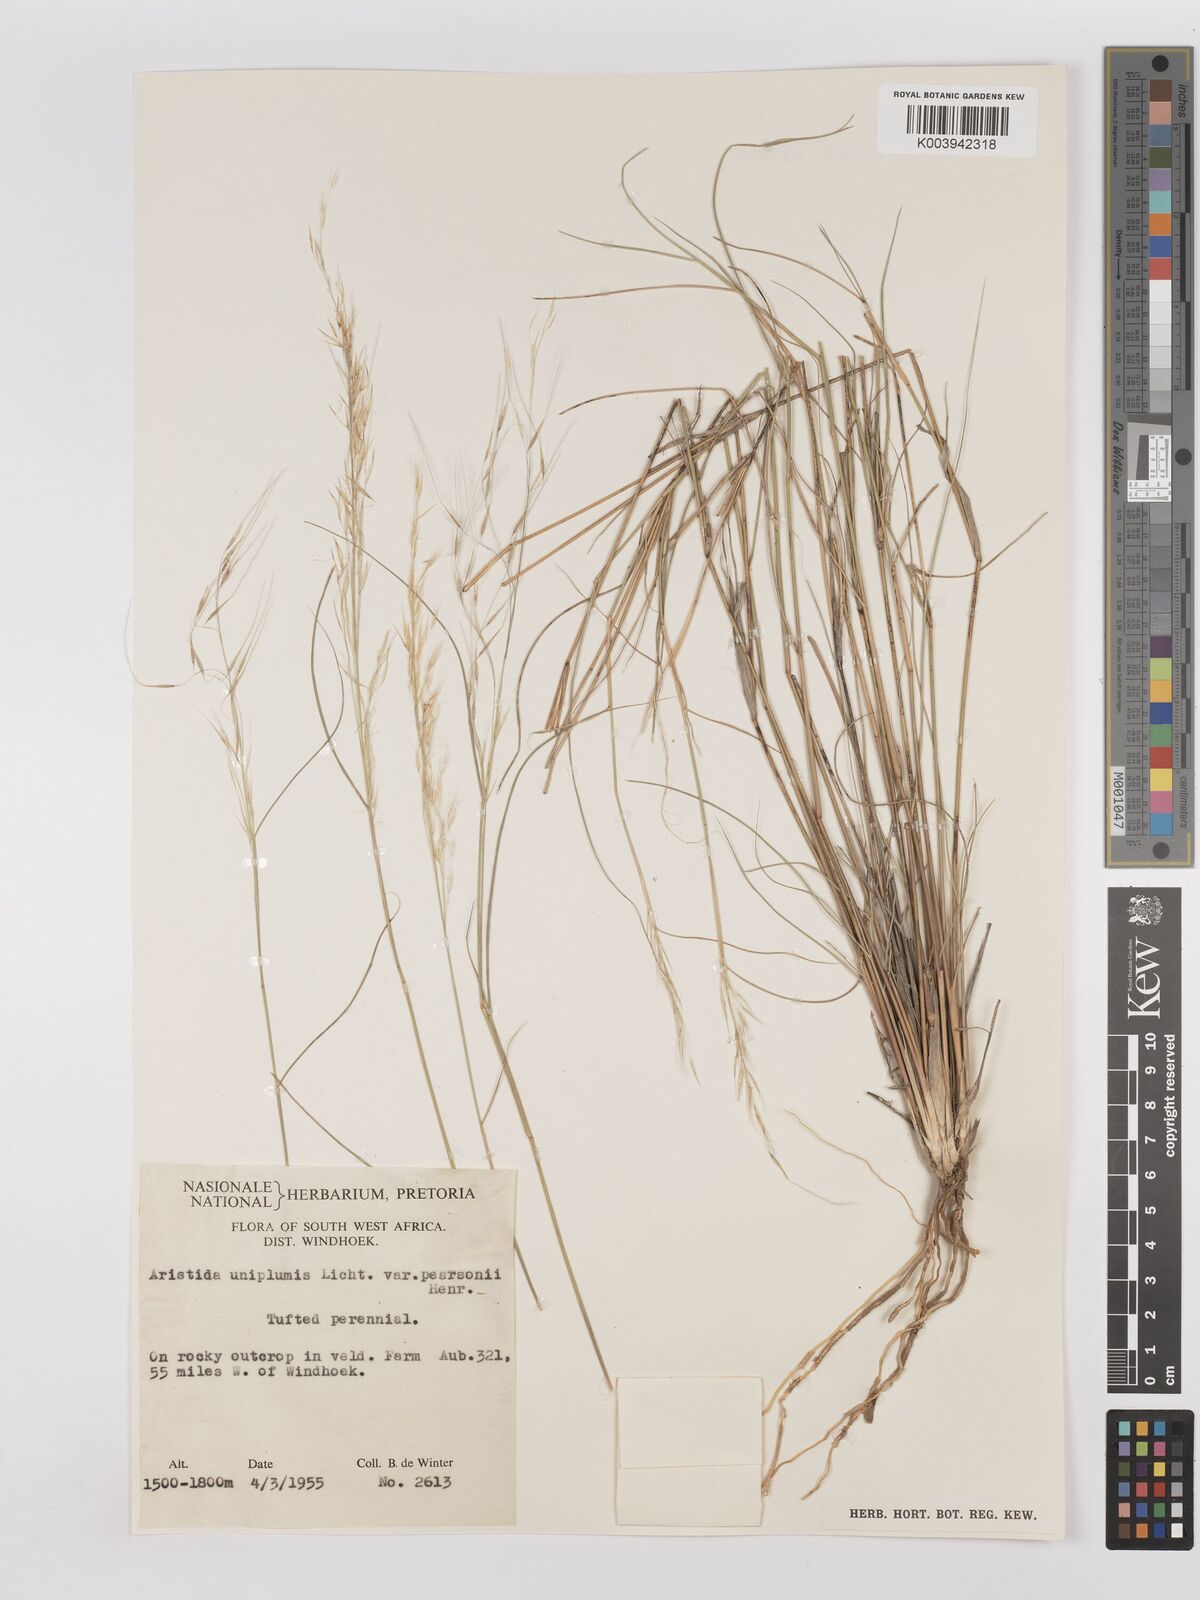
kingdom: Plantae
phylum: Tracheophyta
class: Liliopsida
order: Poales
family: Poaceae
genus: Stipagrostis
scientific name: Stipagrostis uniplumis
